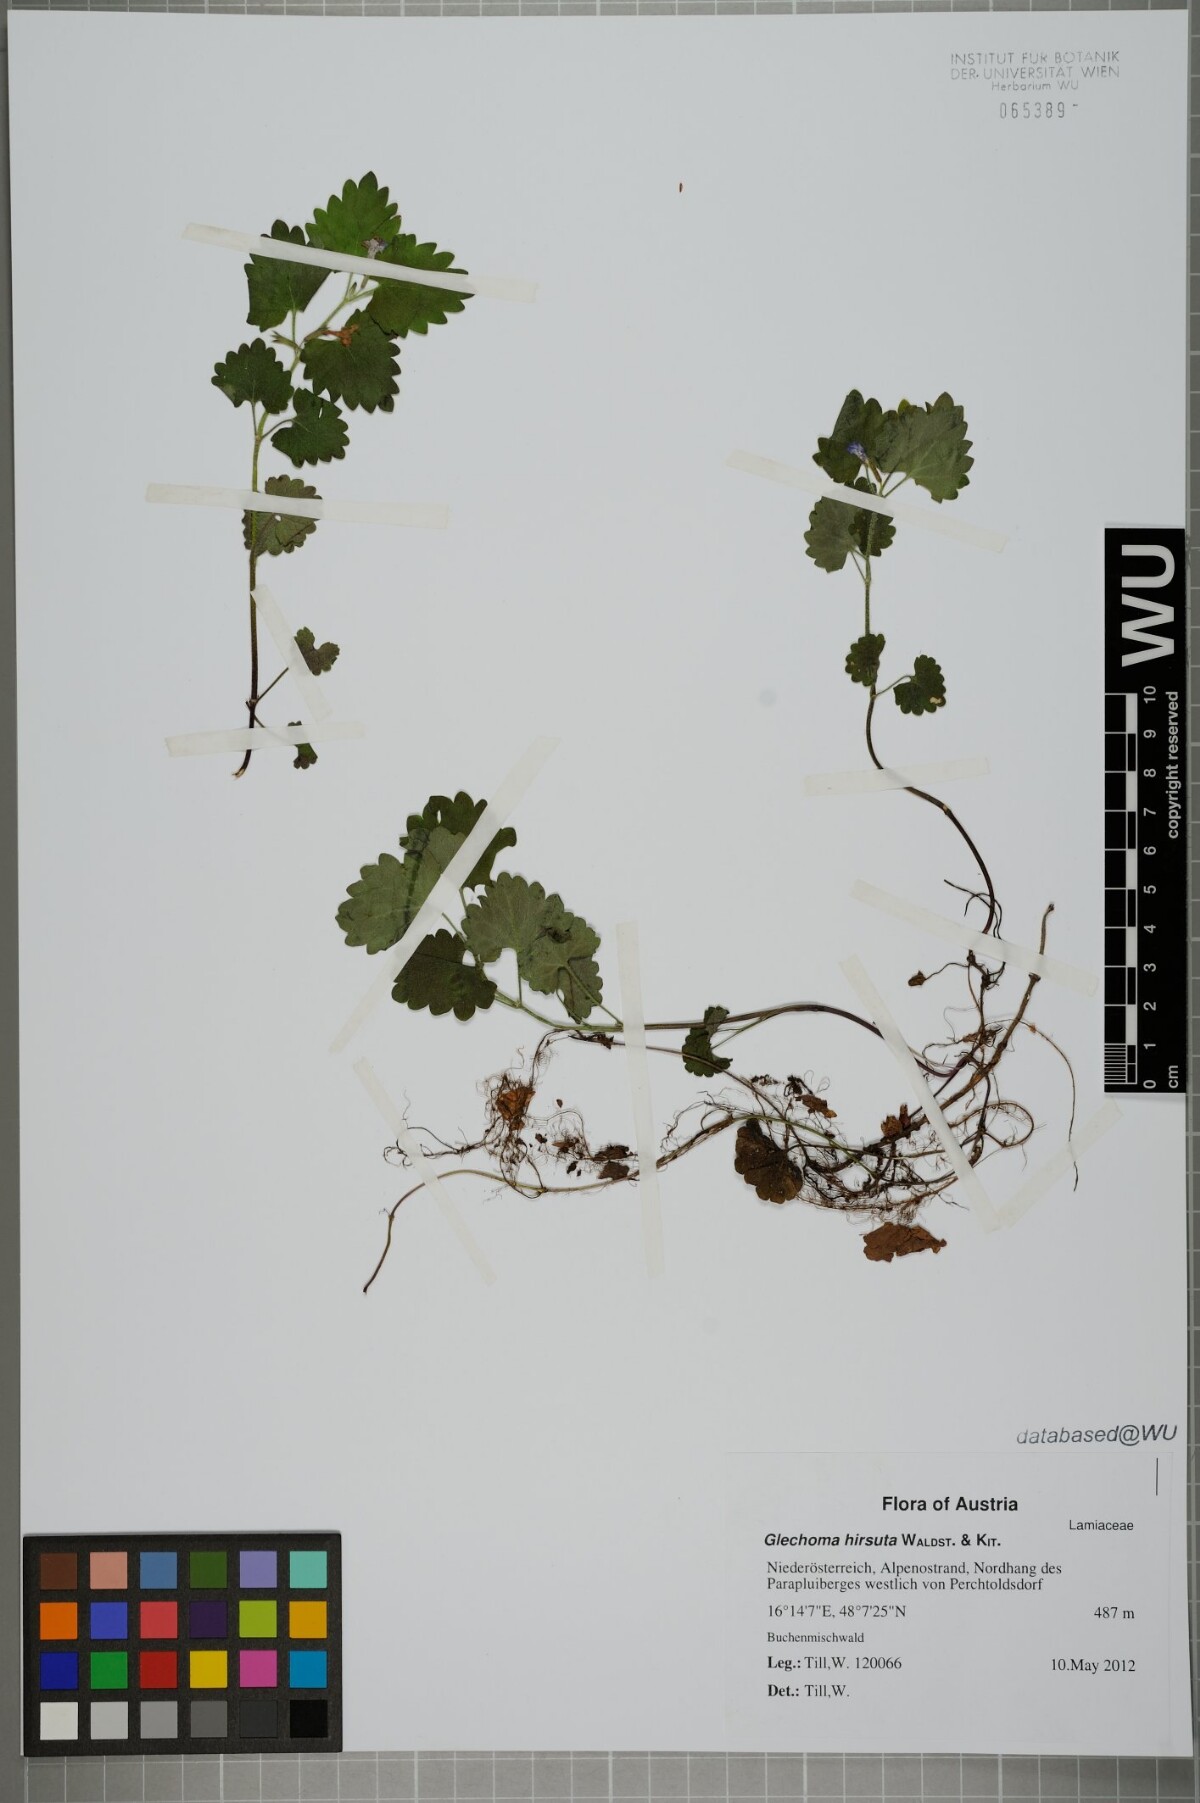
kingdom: Plantae
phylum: Tracheophyta
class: Magnoliopsida
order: Lamiales
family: Lamiaceae
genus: Glechoma
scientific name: Glechoma hirsuta
